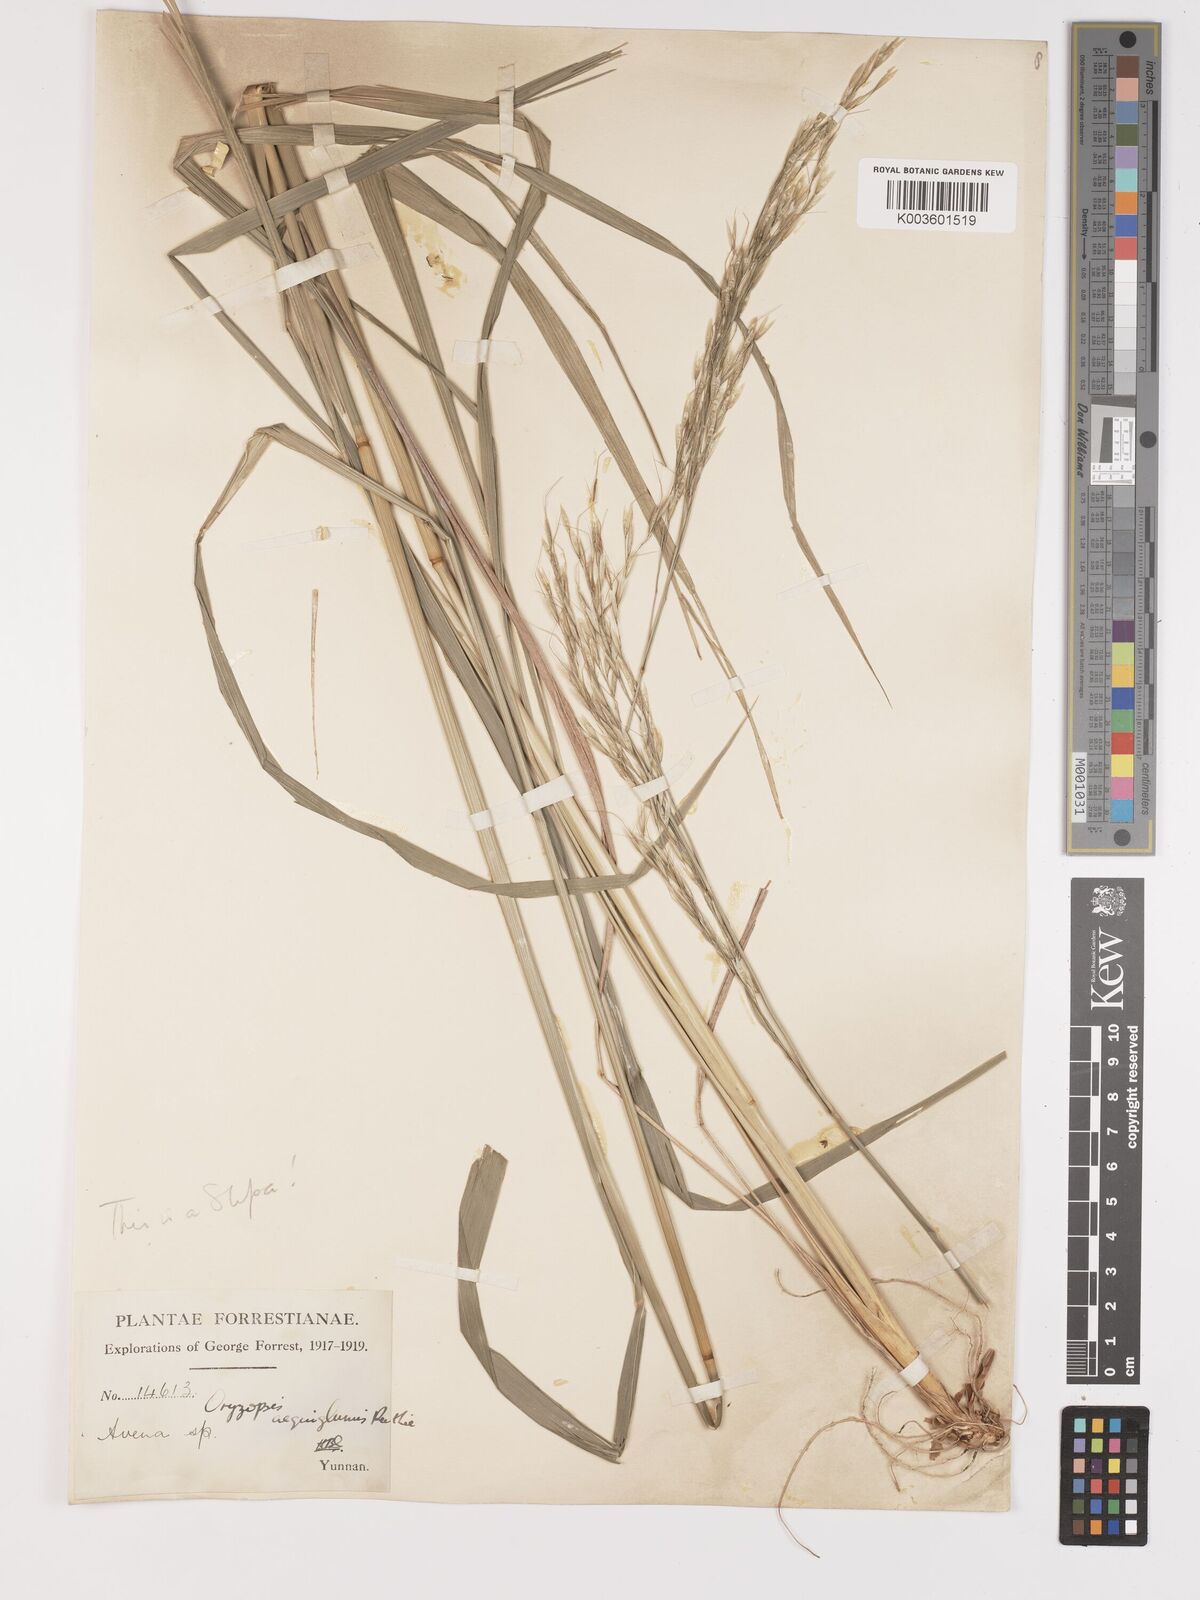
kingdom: Plantae
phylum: Tracheophyta
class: Liliopsida
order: Poales
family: Poaceae
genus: Stipa
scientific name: Stipa
